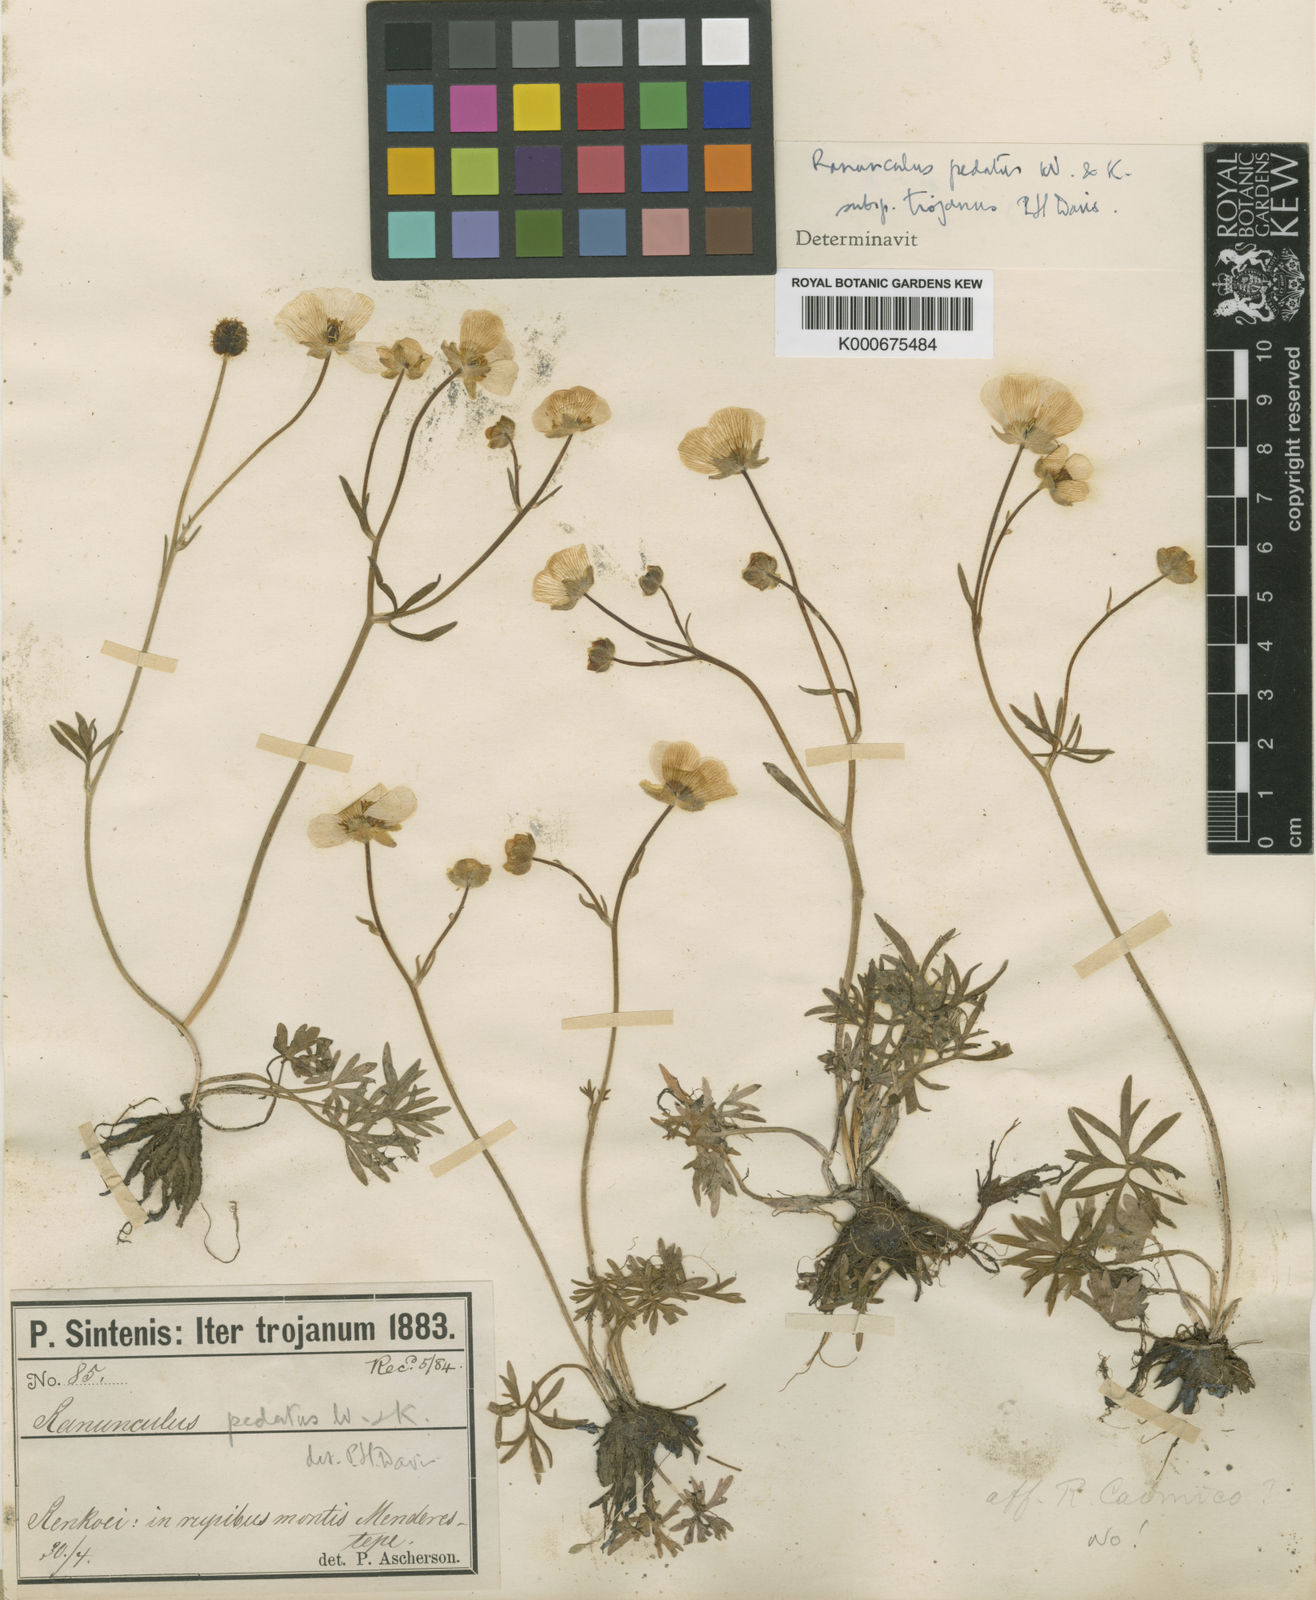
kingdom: Plantae
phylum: Tracheophyta
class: Magnoliopsida
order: Ranunculales
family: Ranunculaceae
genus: Ranunculus
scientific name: Ranunculus pedatus
